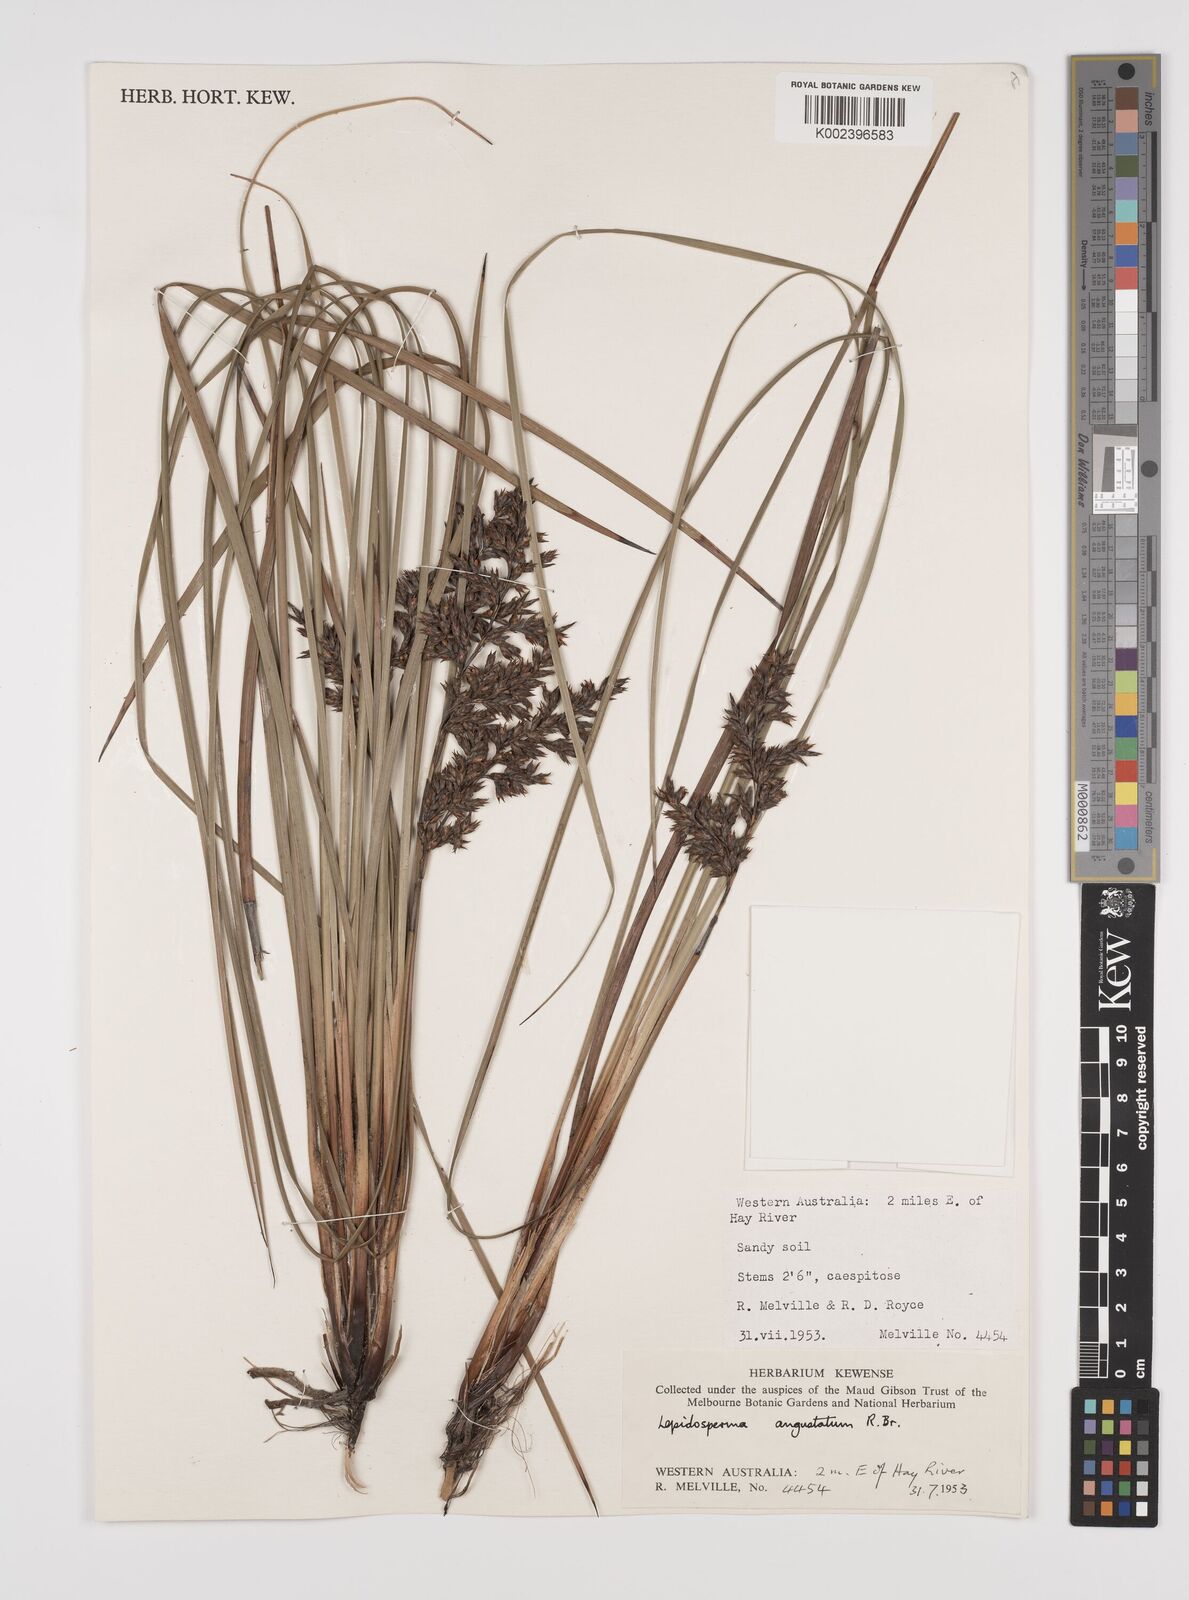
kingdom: Plantae
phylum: Tracheophyta
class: Liliopsida
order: Poales
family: Cyperaceae
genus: Lepidosperma
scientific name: Lepidosperma angustatum
